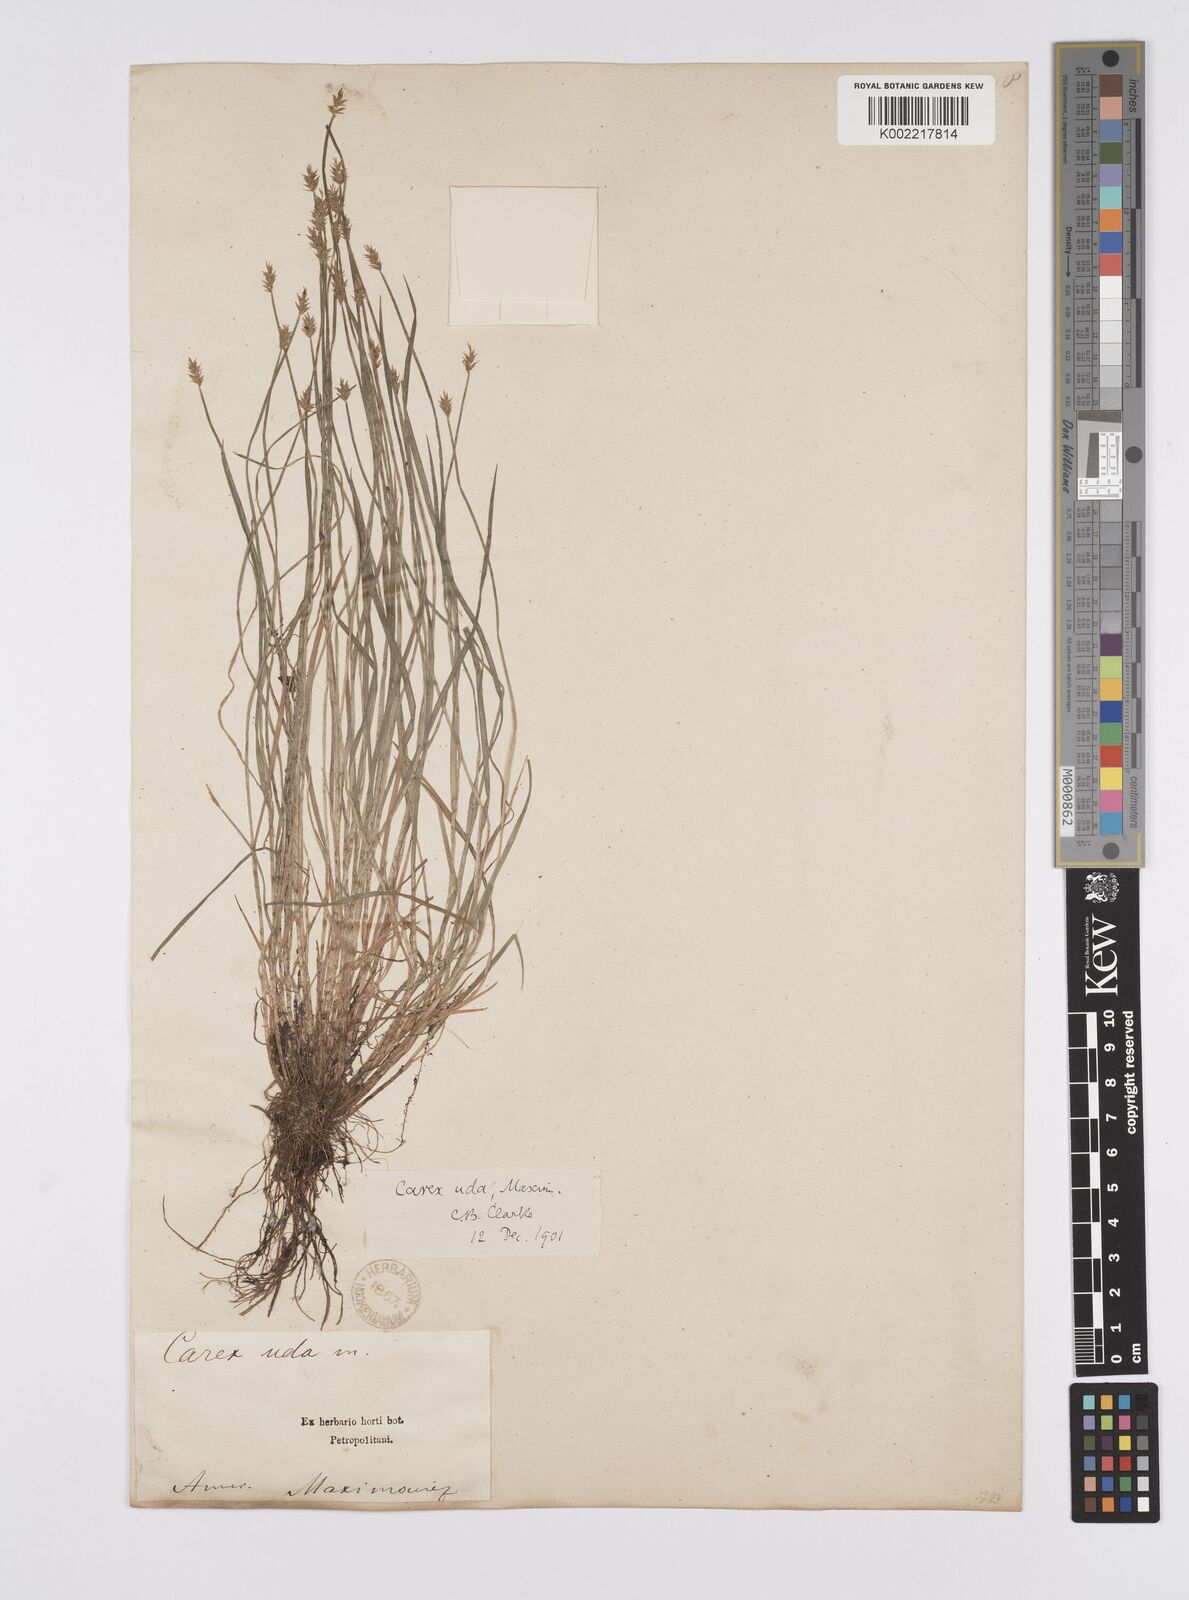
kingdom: Plantae
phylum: Tracheophyta
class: Liliopsida
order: Poales
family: Cyperaceae
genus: Carex
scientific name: Carex uda
